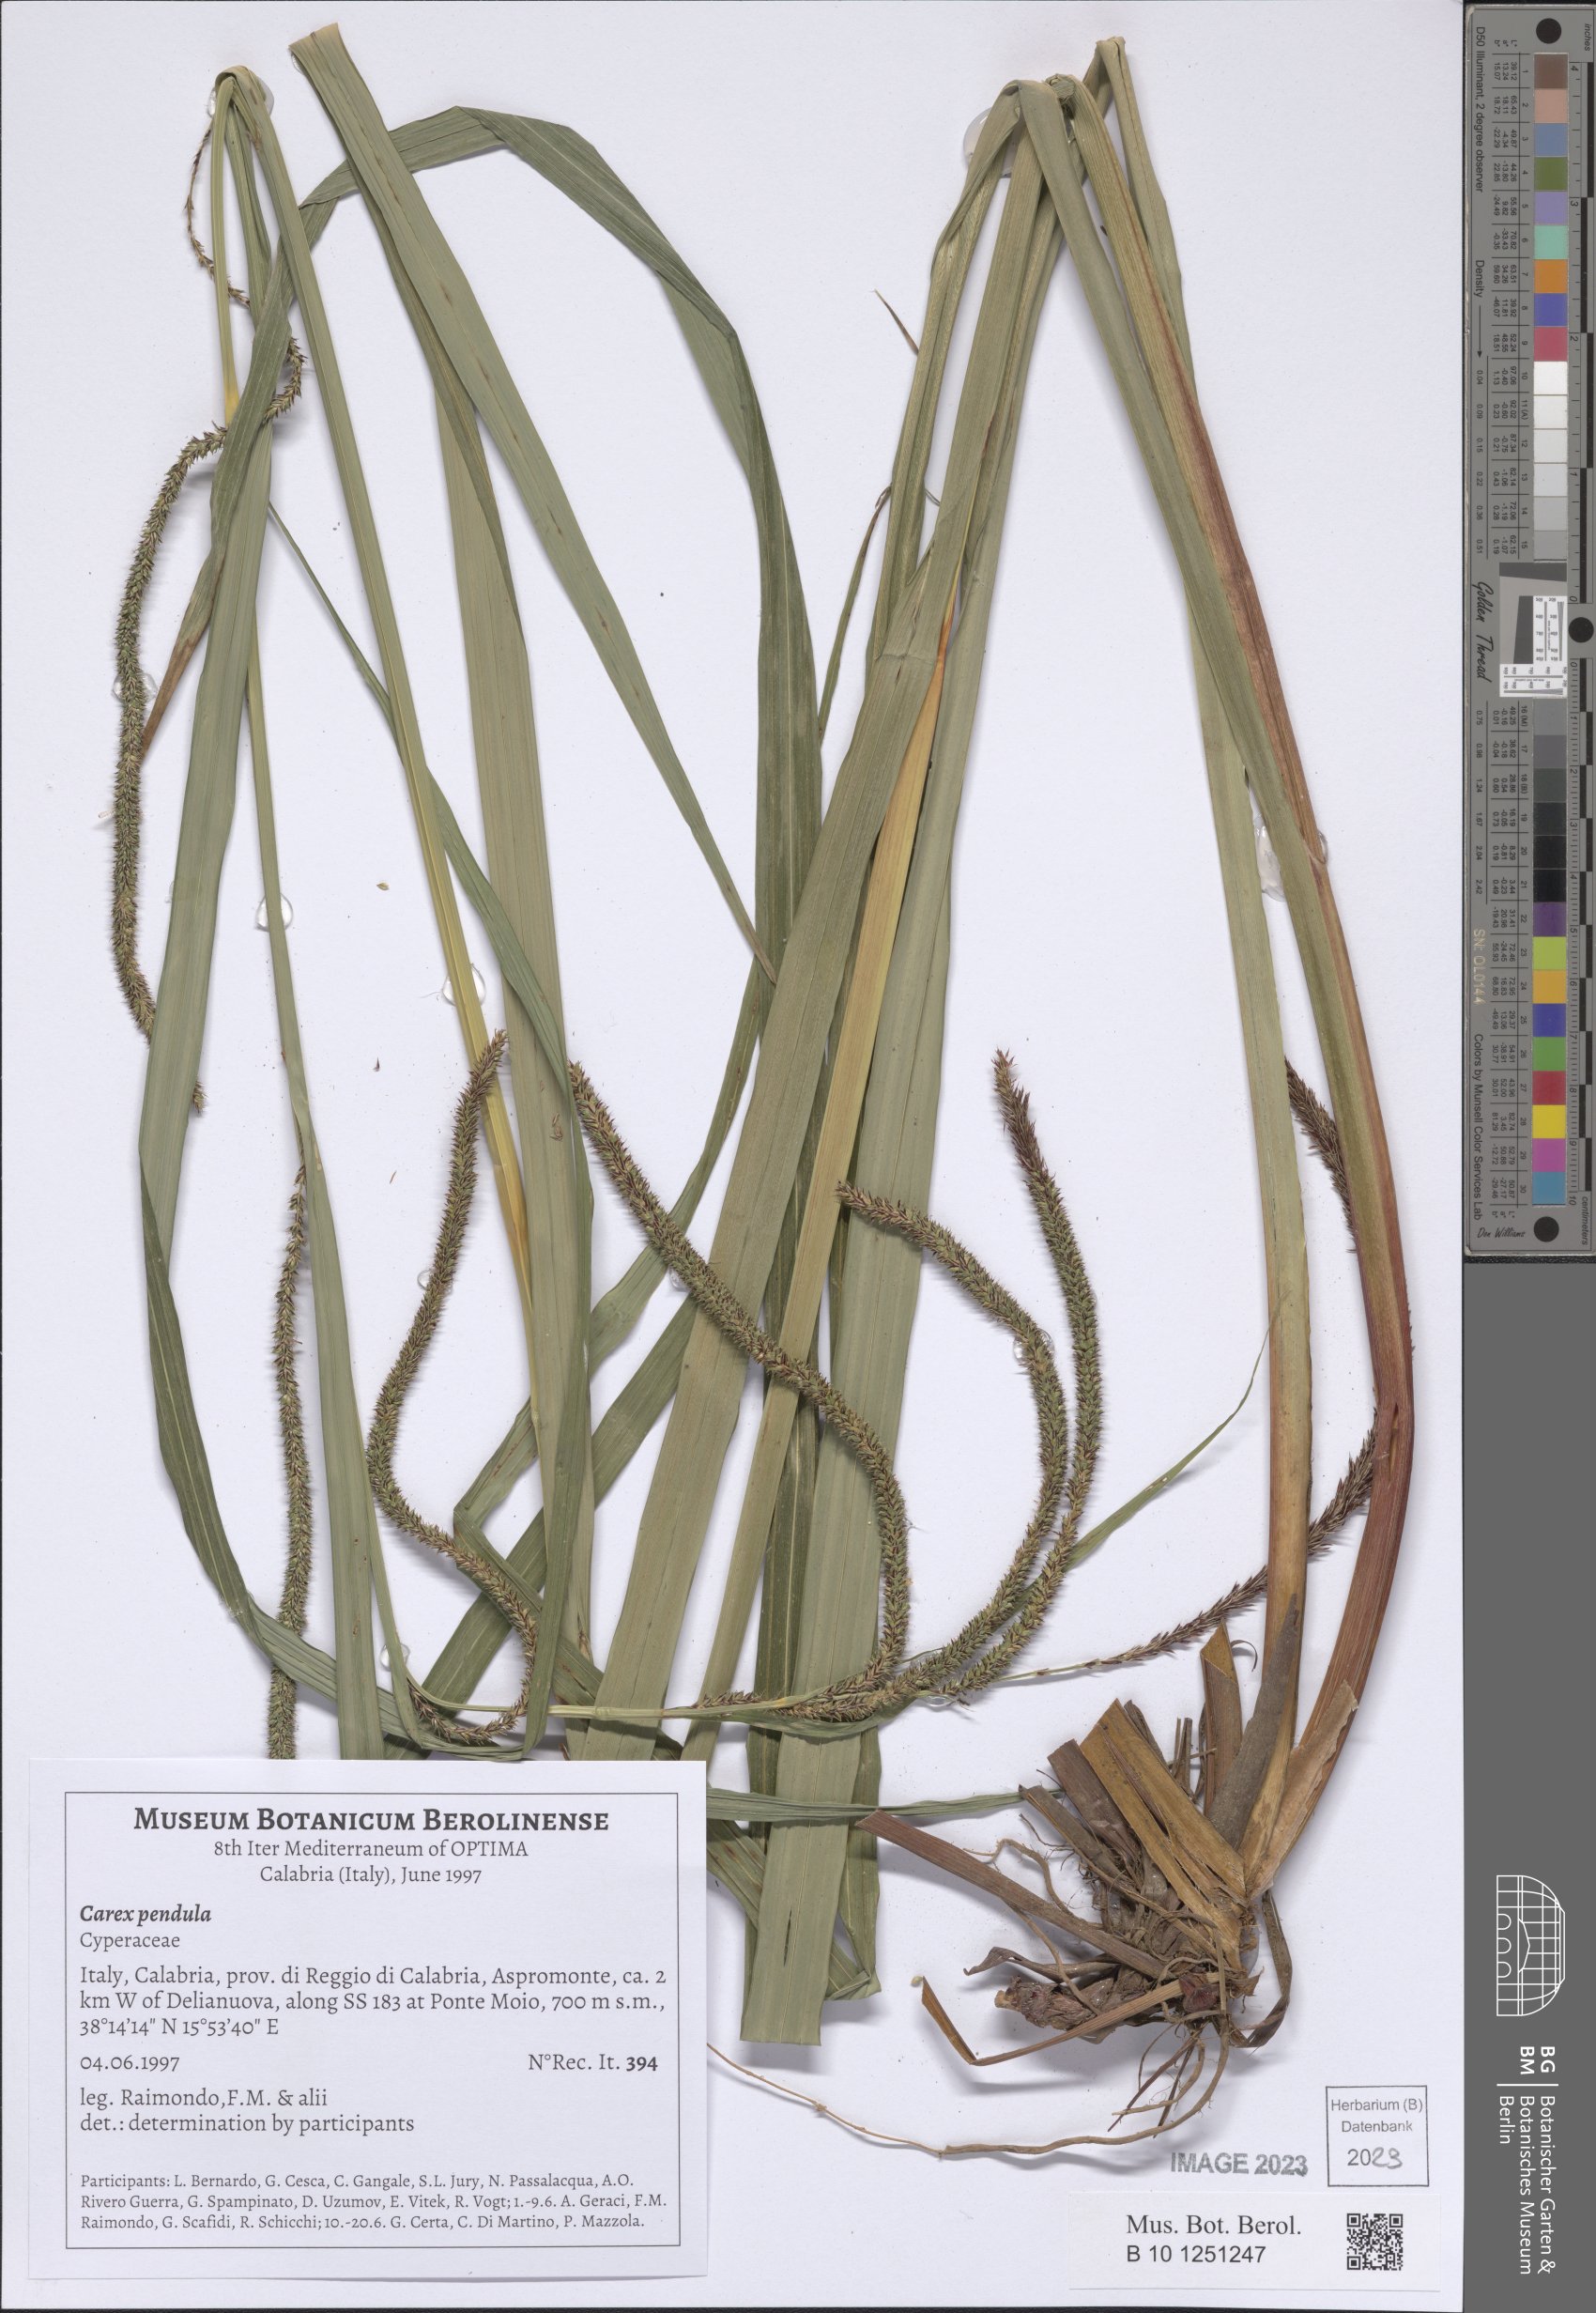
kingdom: Plantae
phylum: Tracheophyta
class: Liliopsida
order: Poales
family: Cyperaceae
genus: Carex
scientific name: Carex pendula
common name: Pendulous sedge
